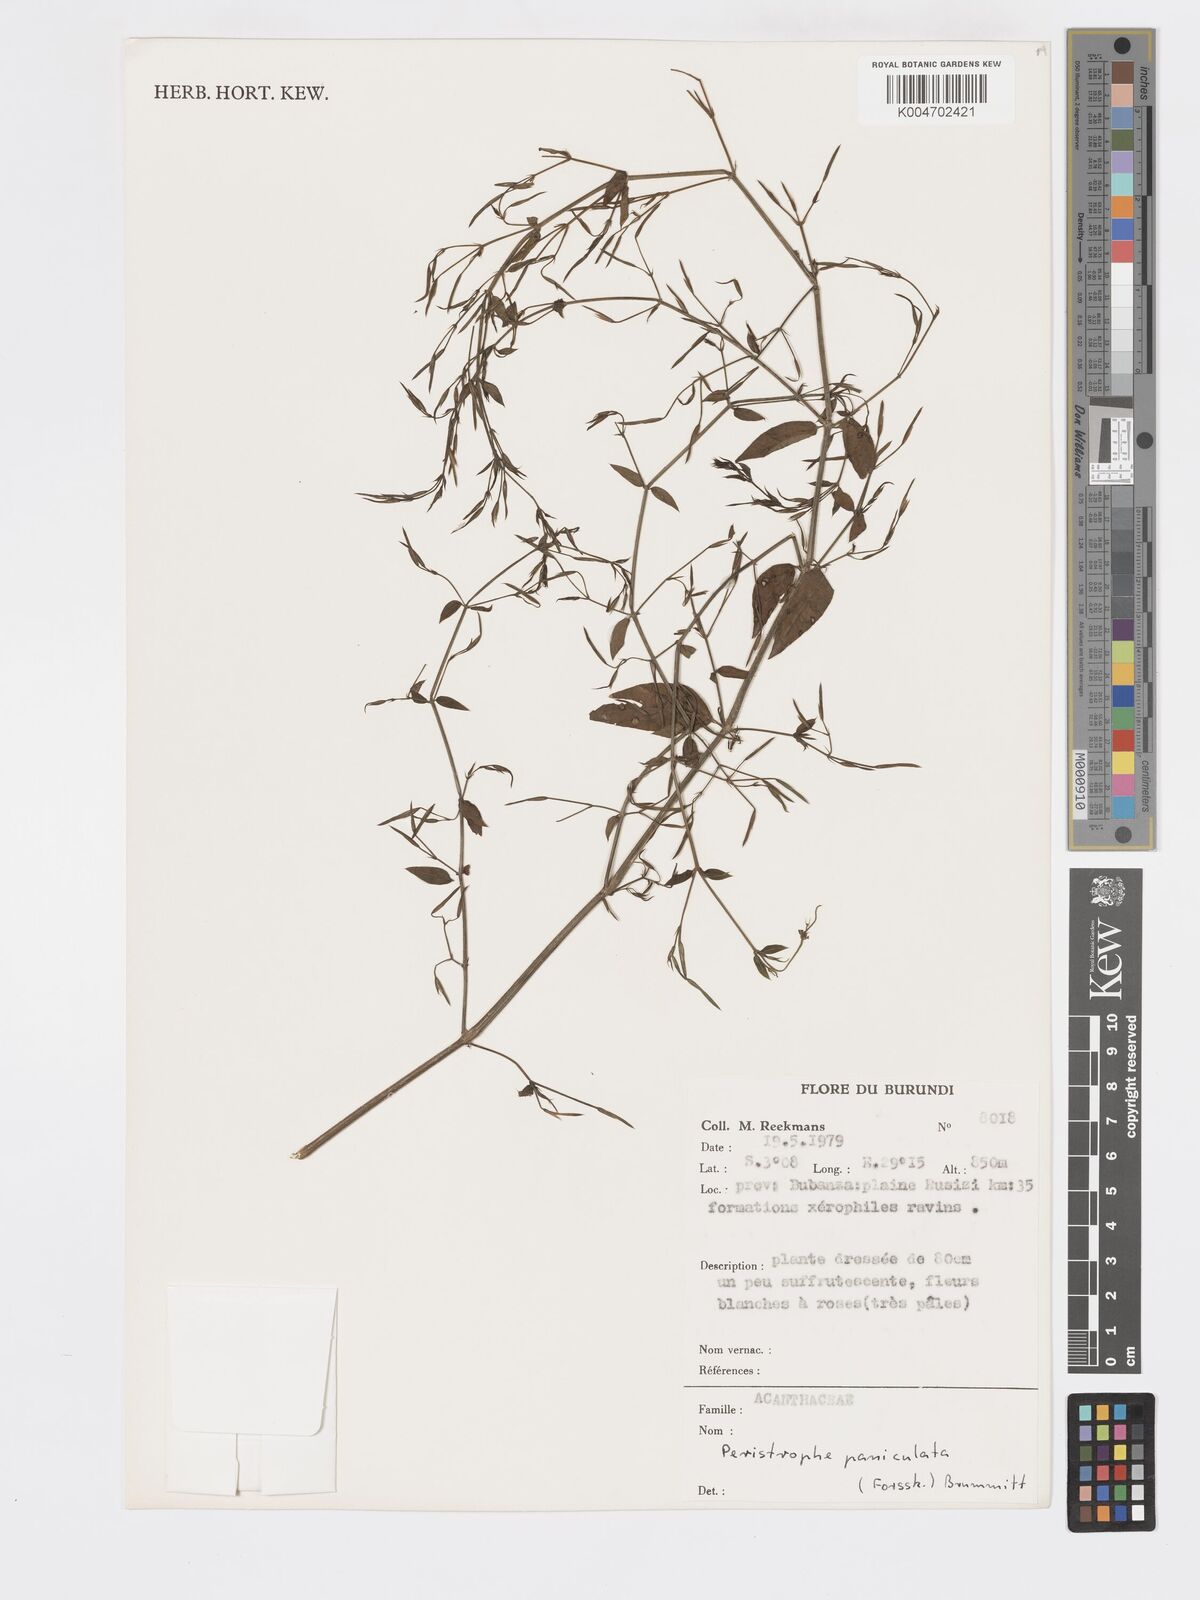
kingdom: Plantae
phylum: Tracheophyta
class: Magnoliopsida
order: Lamiales
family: Acanthaceae
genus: Dicliptera
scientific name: Dicliptera paniculata
